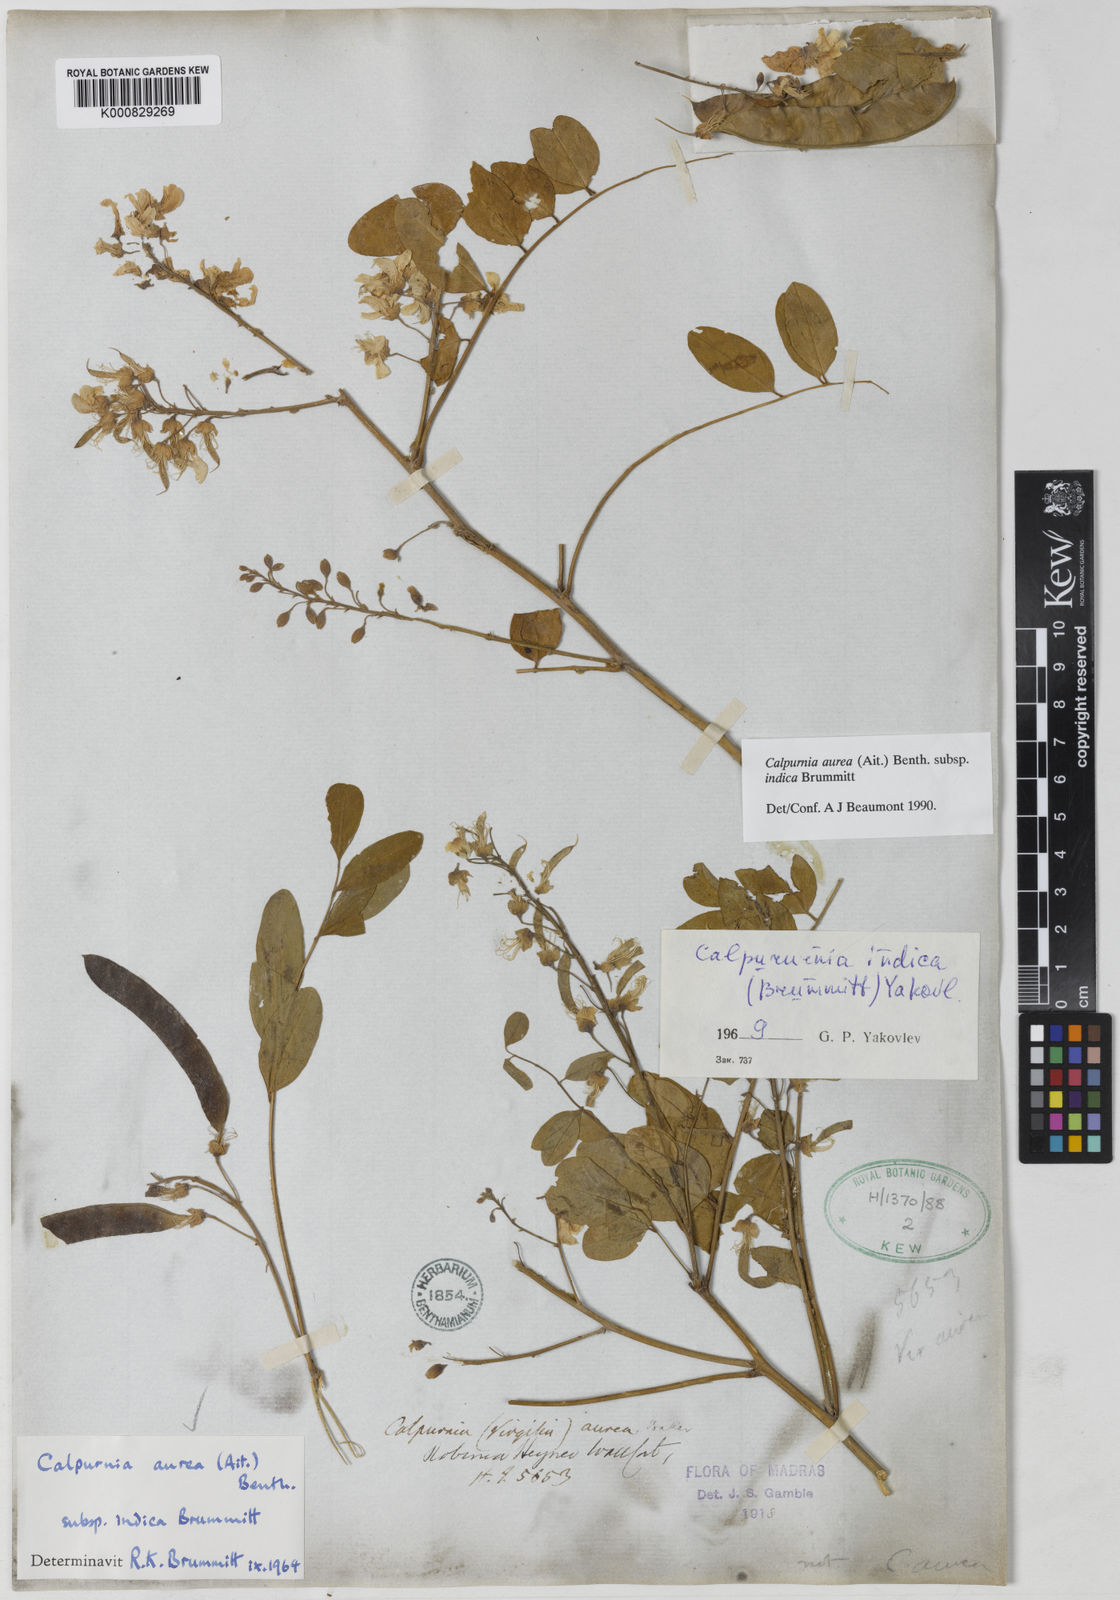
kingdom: Plantae
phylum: Tracheophyta
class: Magnoliopsida
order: Fabales
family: Fabaceae
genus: Calpurnia
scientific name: Calpurnia aurea
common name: Wild laburnum
